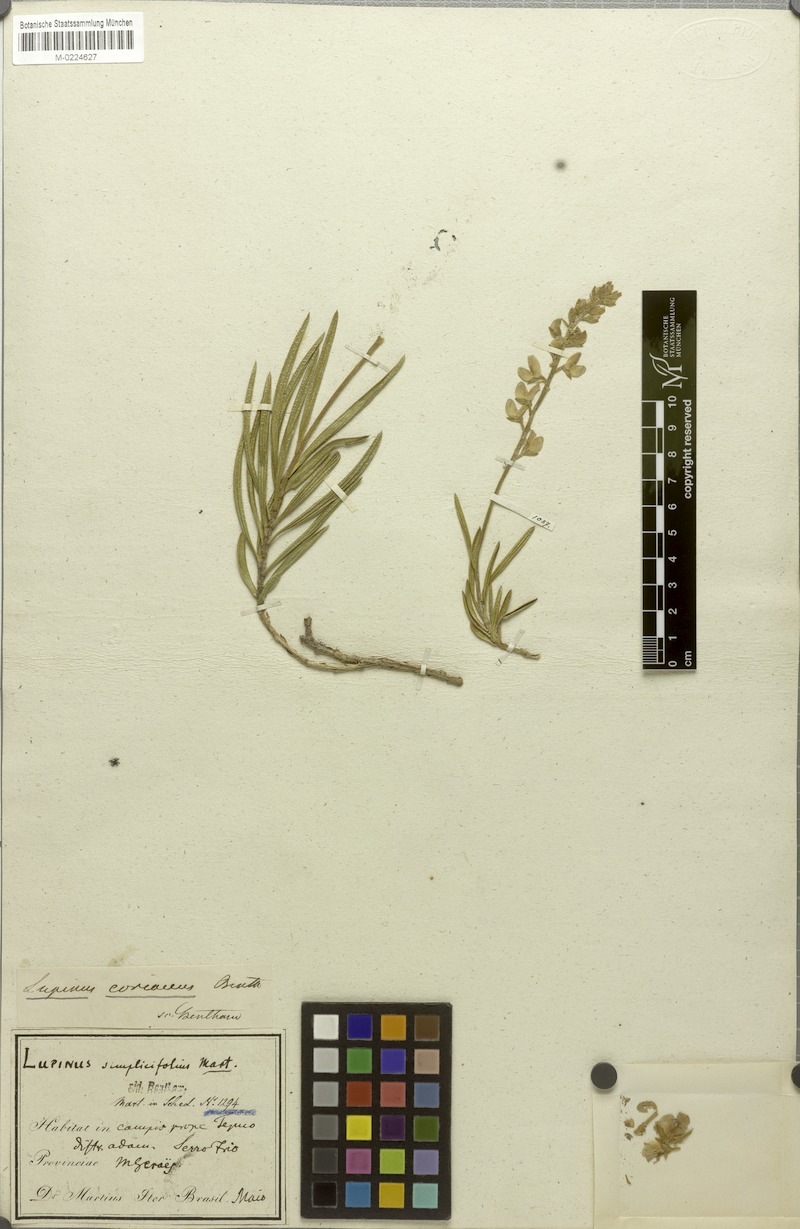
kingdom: Plantae
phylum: Tracheophyta
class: Magnoliopsida
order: Fabales
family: Fabaceae
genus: Lupinus
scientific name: Lupinus coriaceus
